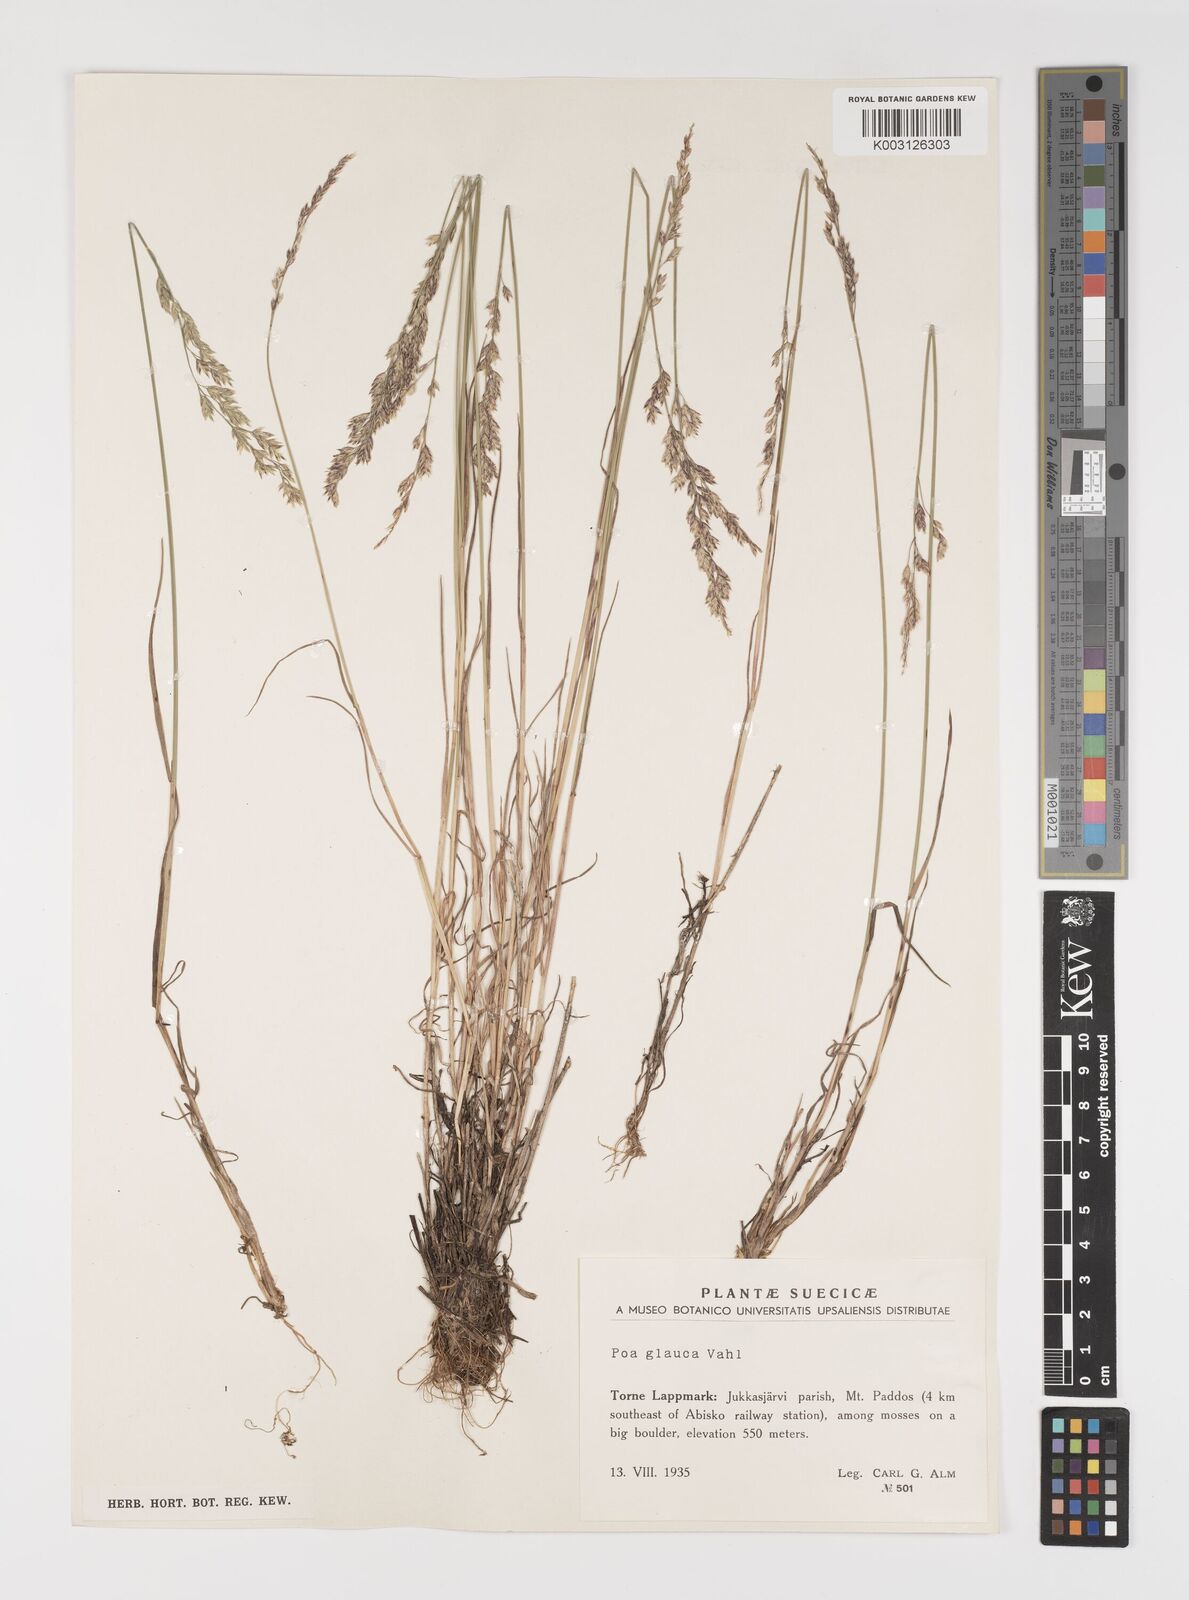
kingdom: Plantae
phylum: Tracheophyta
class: Liliopsida
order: Poales
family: Poaceae
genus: Poa
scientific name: Poa glauca
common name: Glaucous bluegrass
